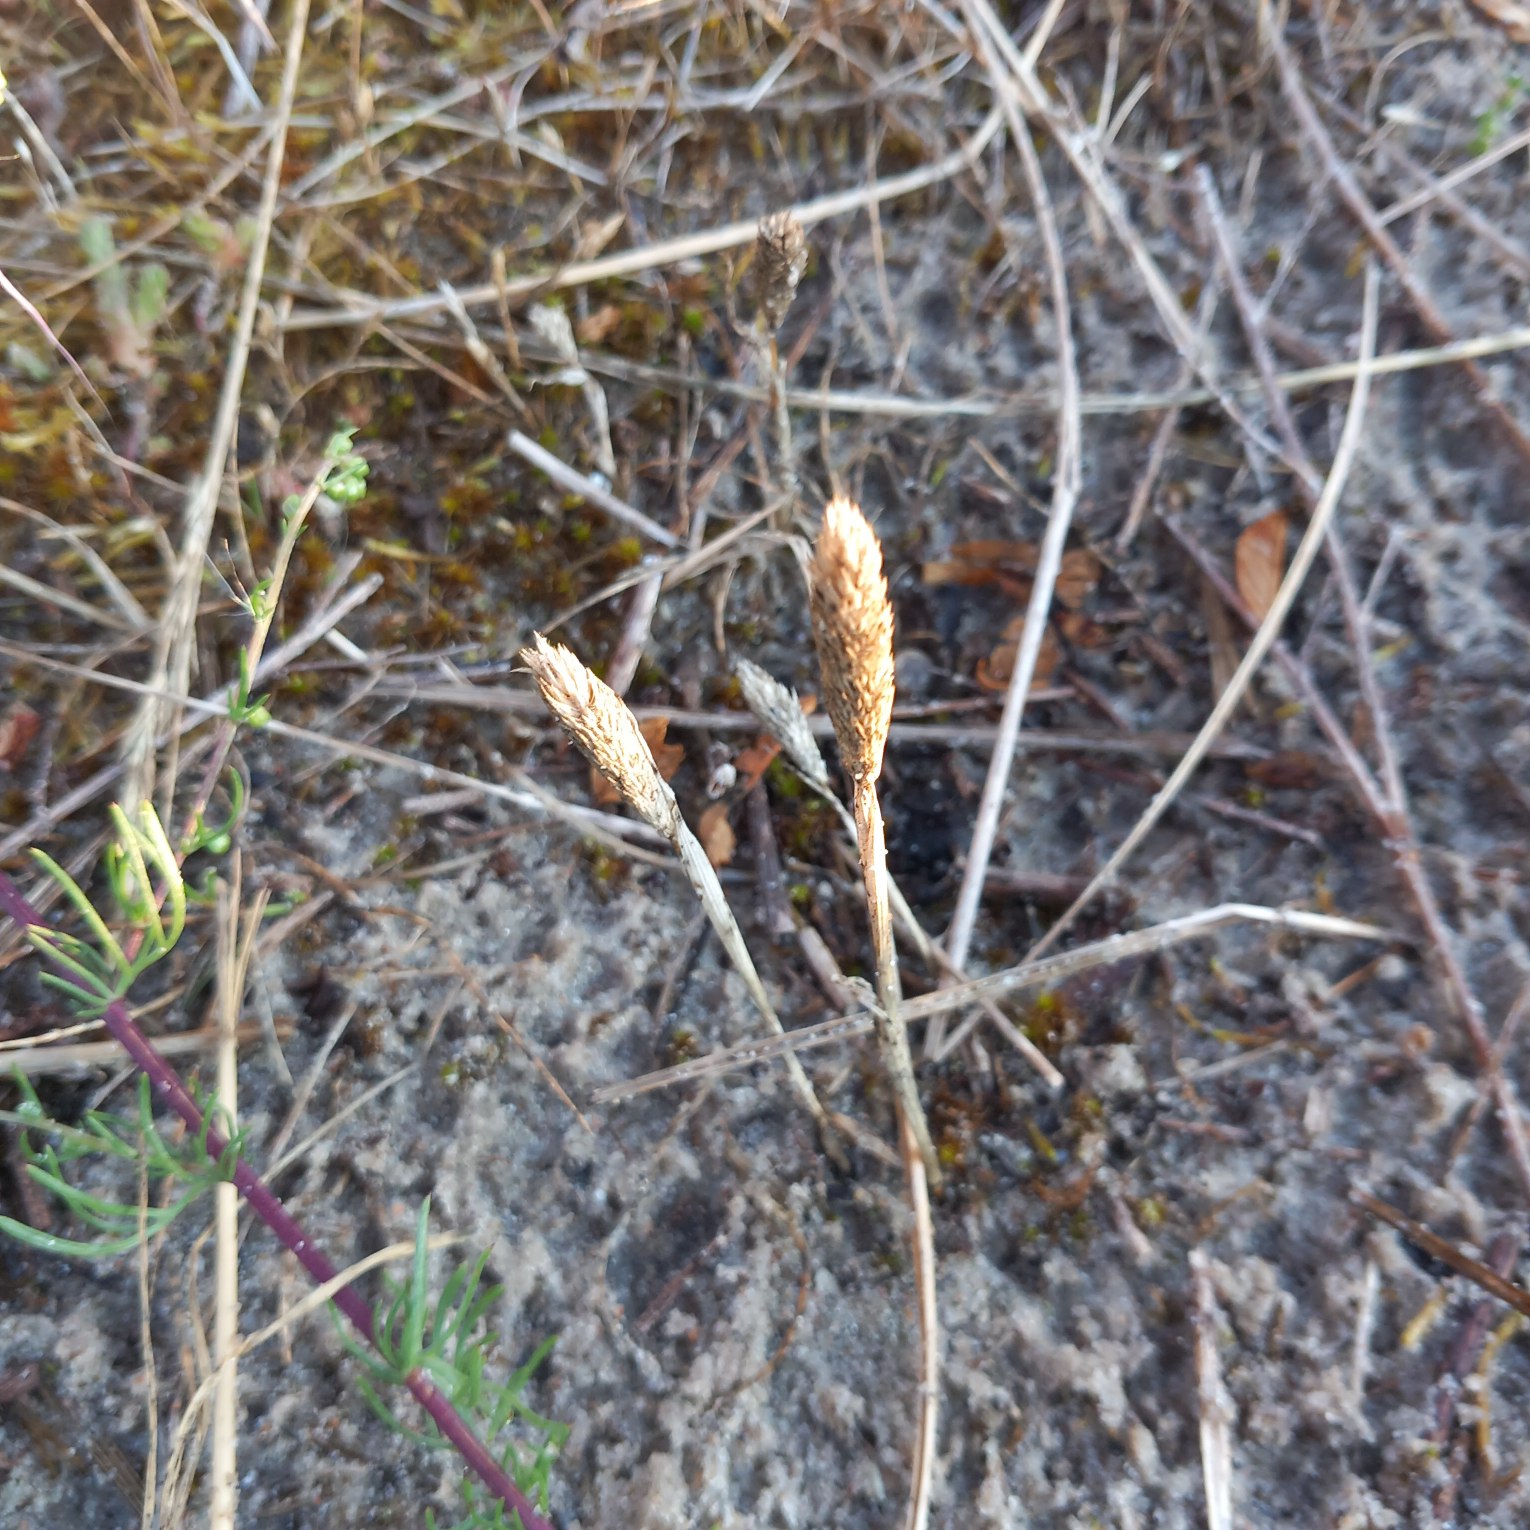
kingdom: Plantae
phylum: Tracheophyta
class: Liliopsida
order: Poales
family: Poaceae
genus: Phleum
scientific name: Phleum arenarium
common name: Sand-rottehale
